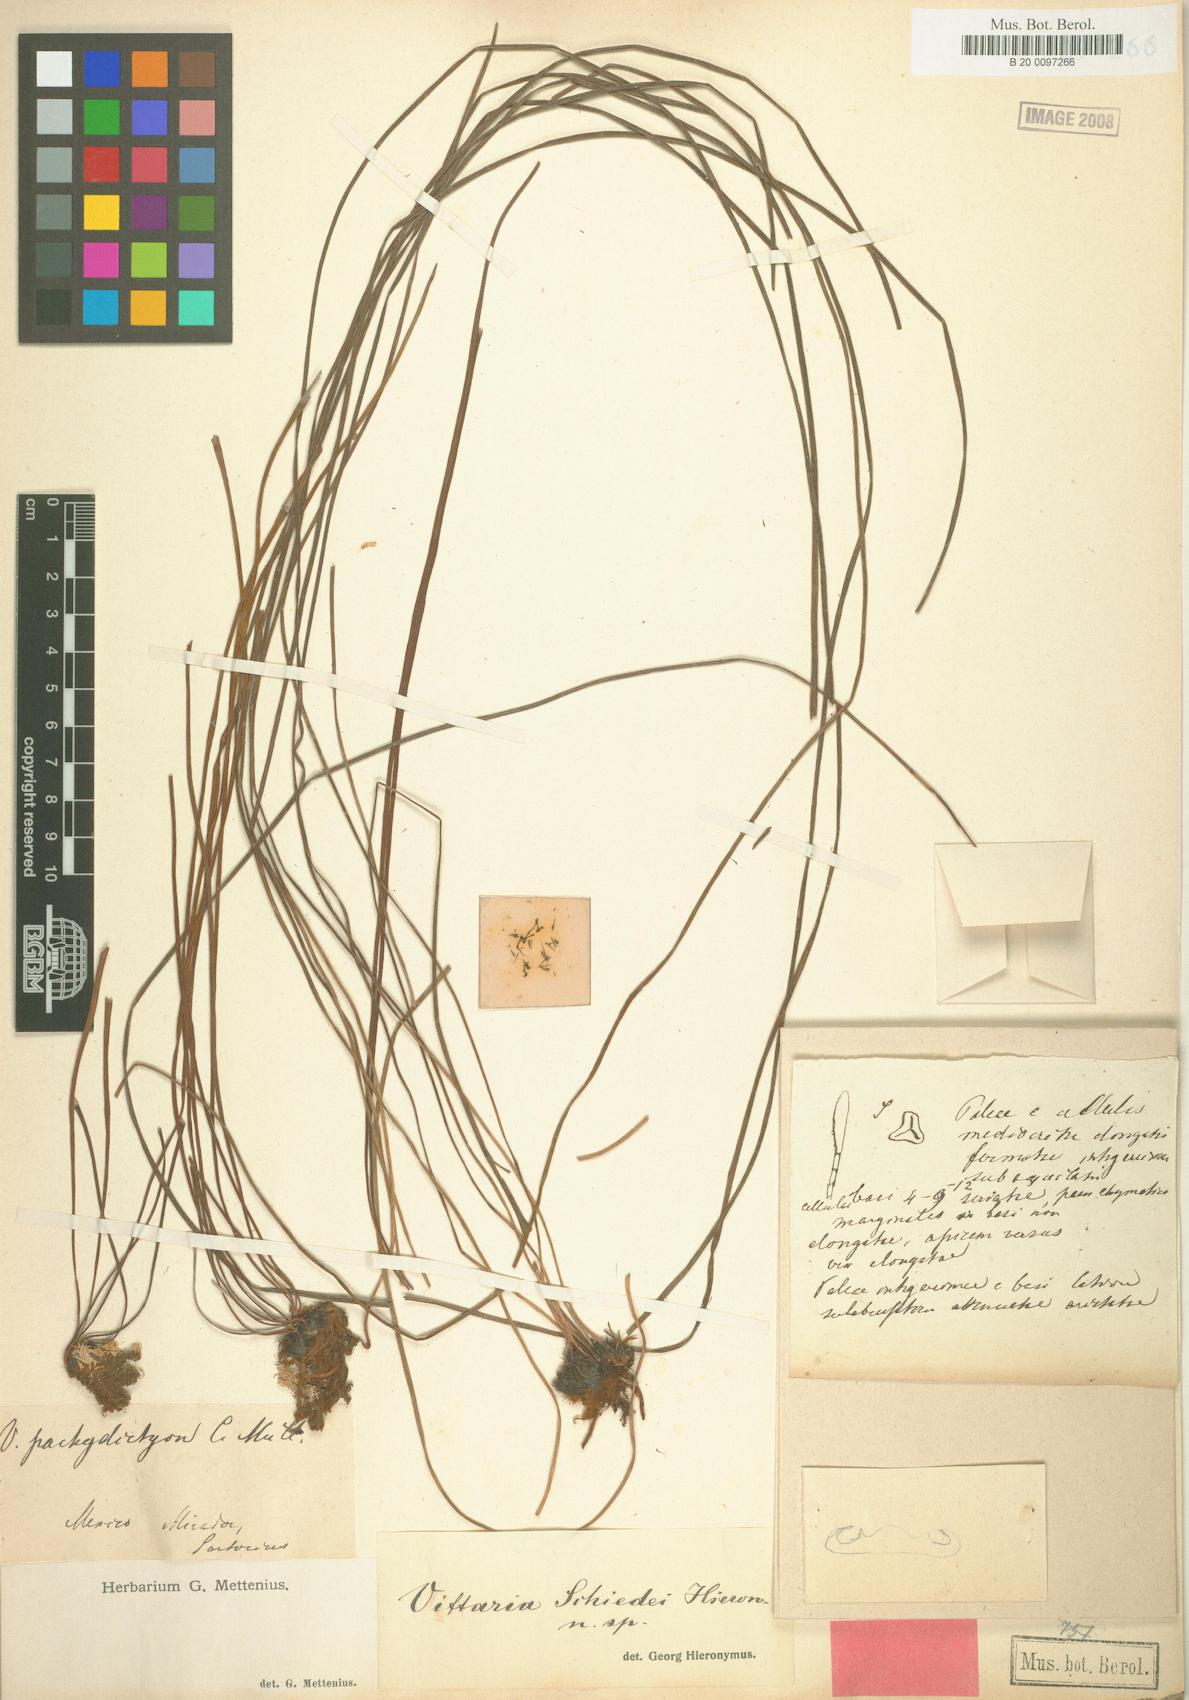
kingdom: Plantae
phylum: Tracheophyta
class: Polypodiopsida
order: Polypodiales
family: Pteridaceae
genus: Vittaria
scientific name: Vittaria
